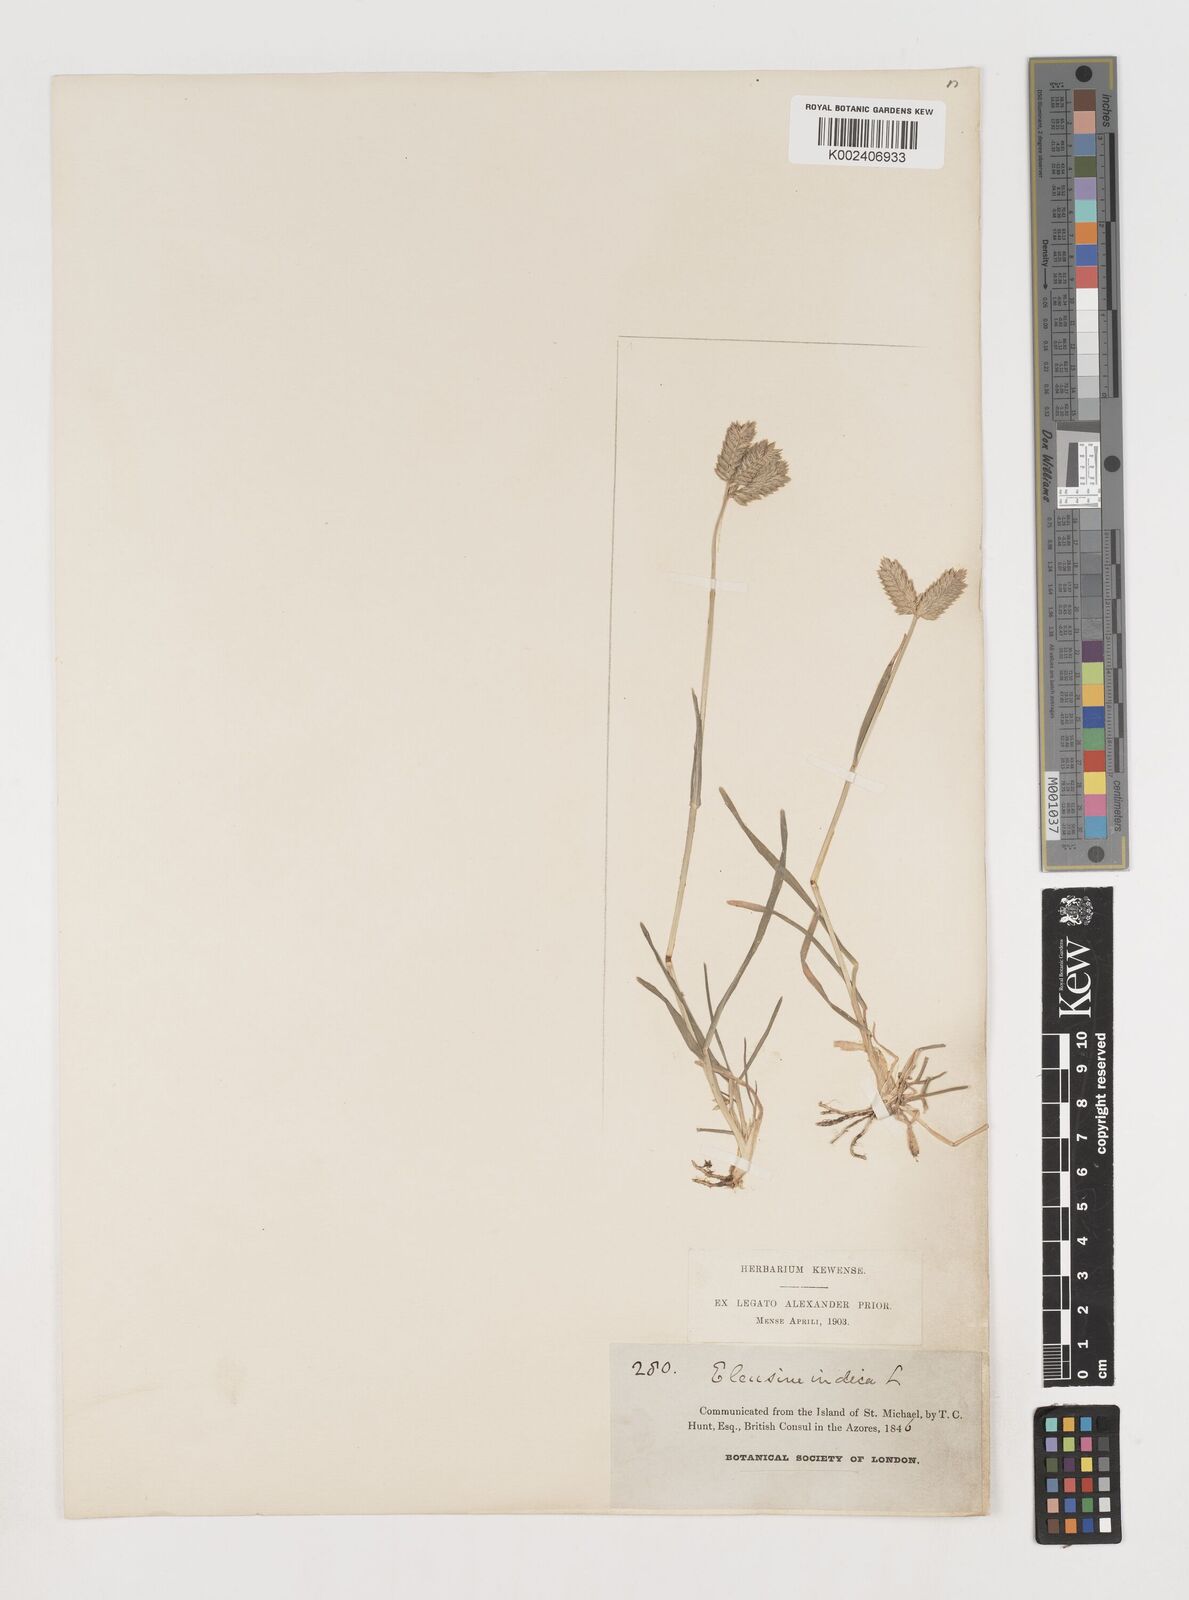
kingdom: Plantae
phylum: Tracheophyta
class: Liliopsida
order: Poales
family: Poaceae
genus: Eleusine
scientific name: Eleusine tristachya
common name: American yard-grass
